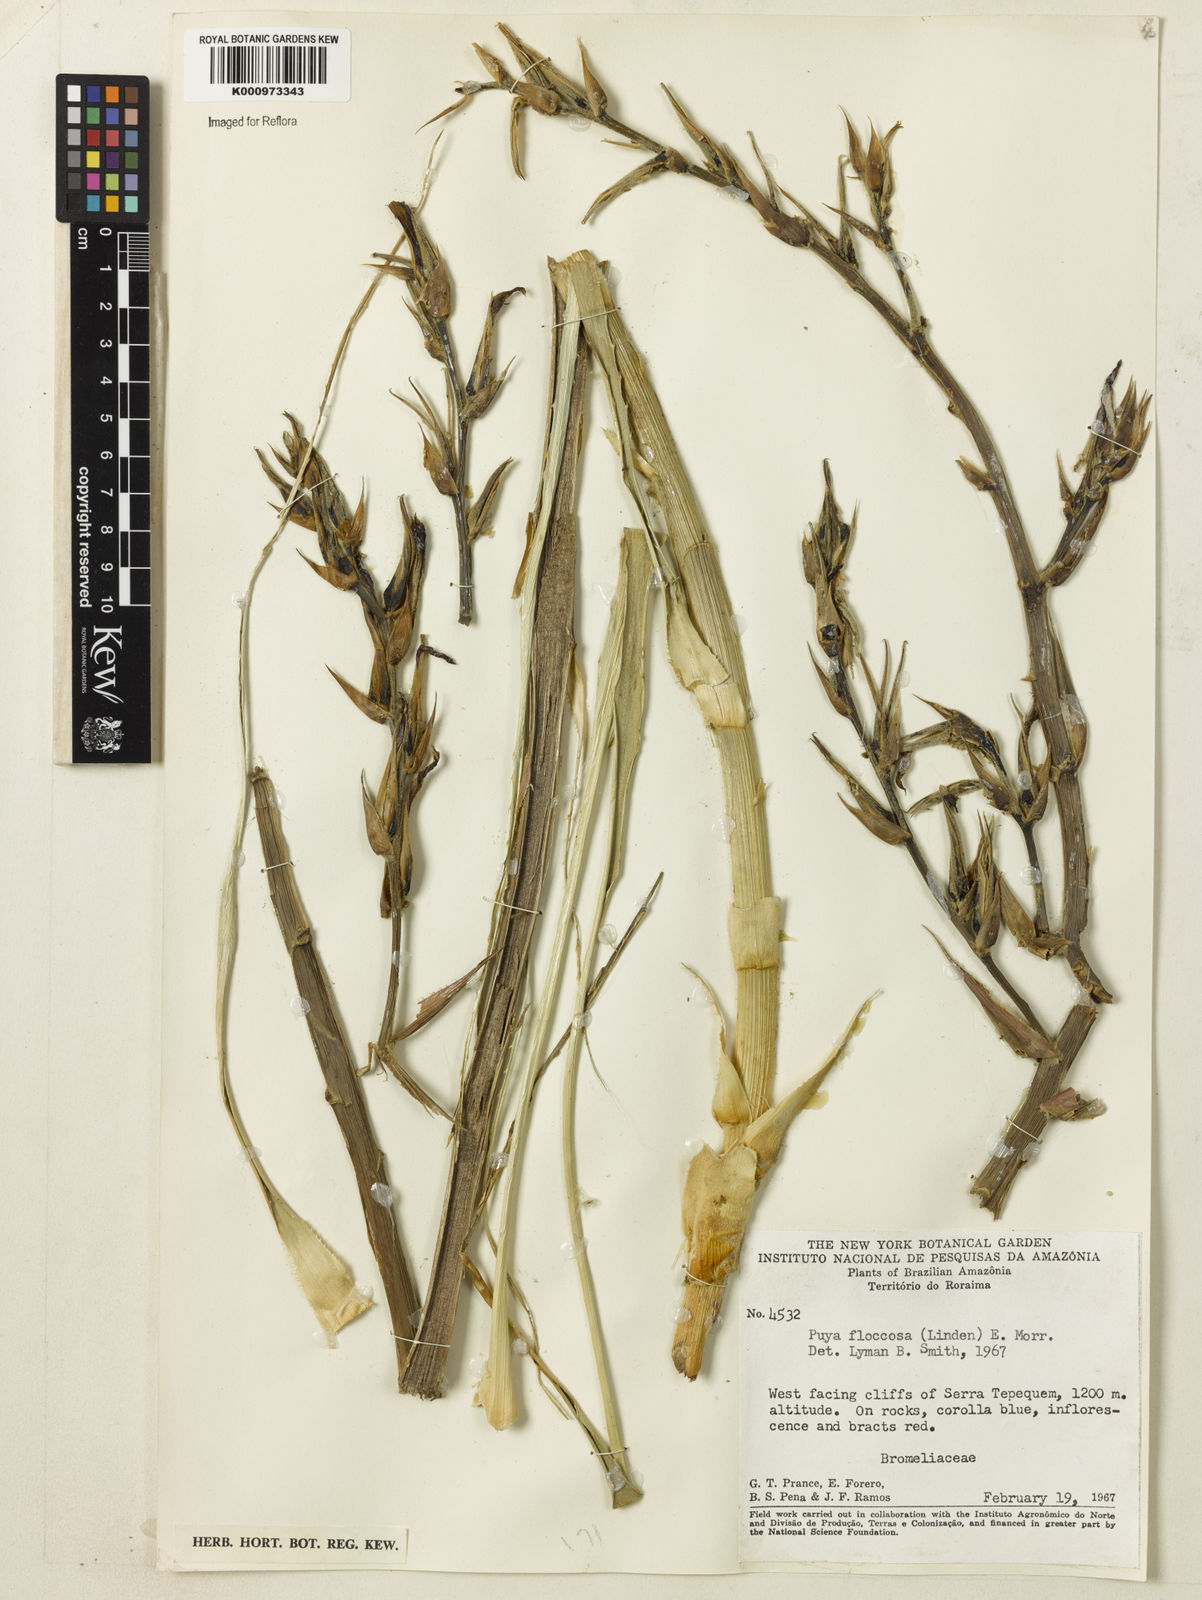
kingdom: Plantae
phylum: Tracheophyta
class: Liliopsida
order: Poales
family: Bromeliaceae
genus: Puya
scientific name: Puya
